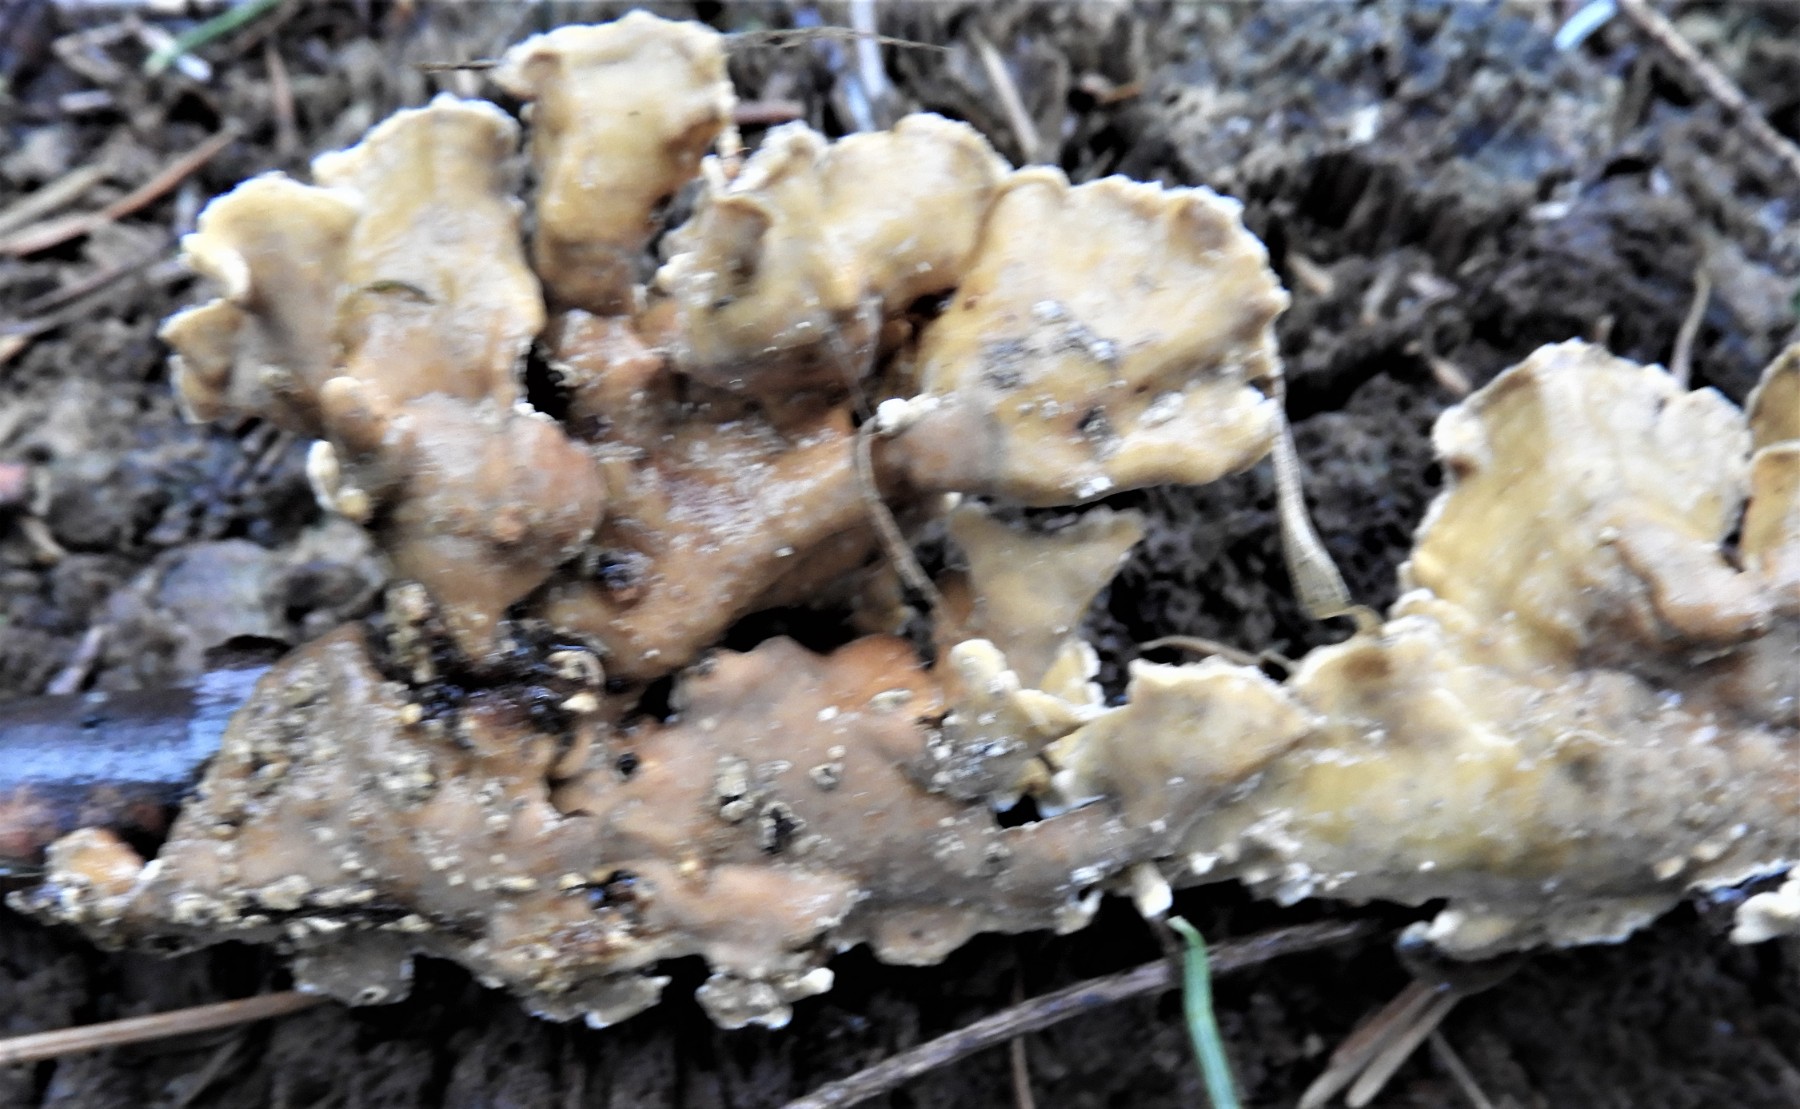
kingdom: Fungi
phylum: Basidiomycota
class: Agaricomycetes
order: Russulales
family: Stereaceae
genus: Stereum
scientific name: Stereum subtomentosum
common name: smuk lædersvamp
